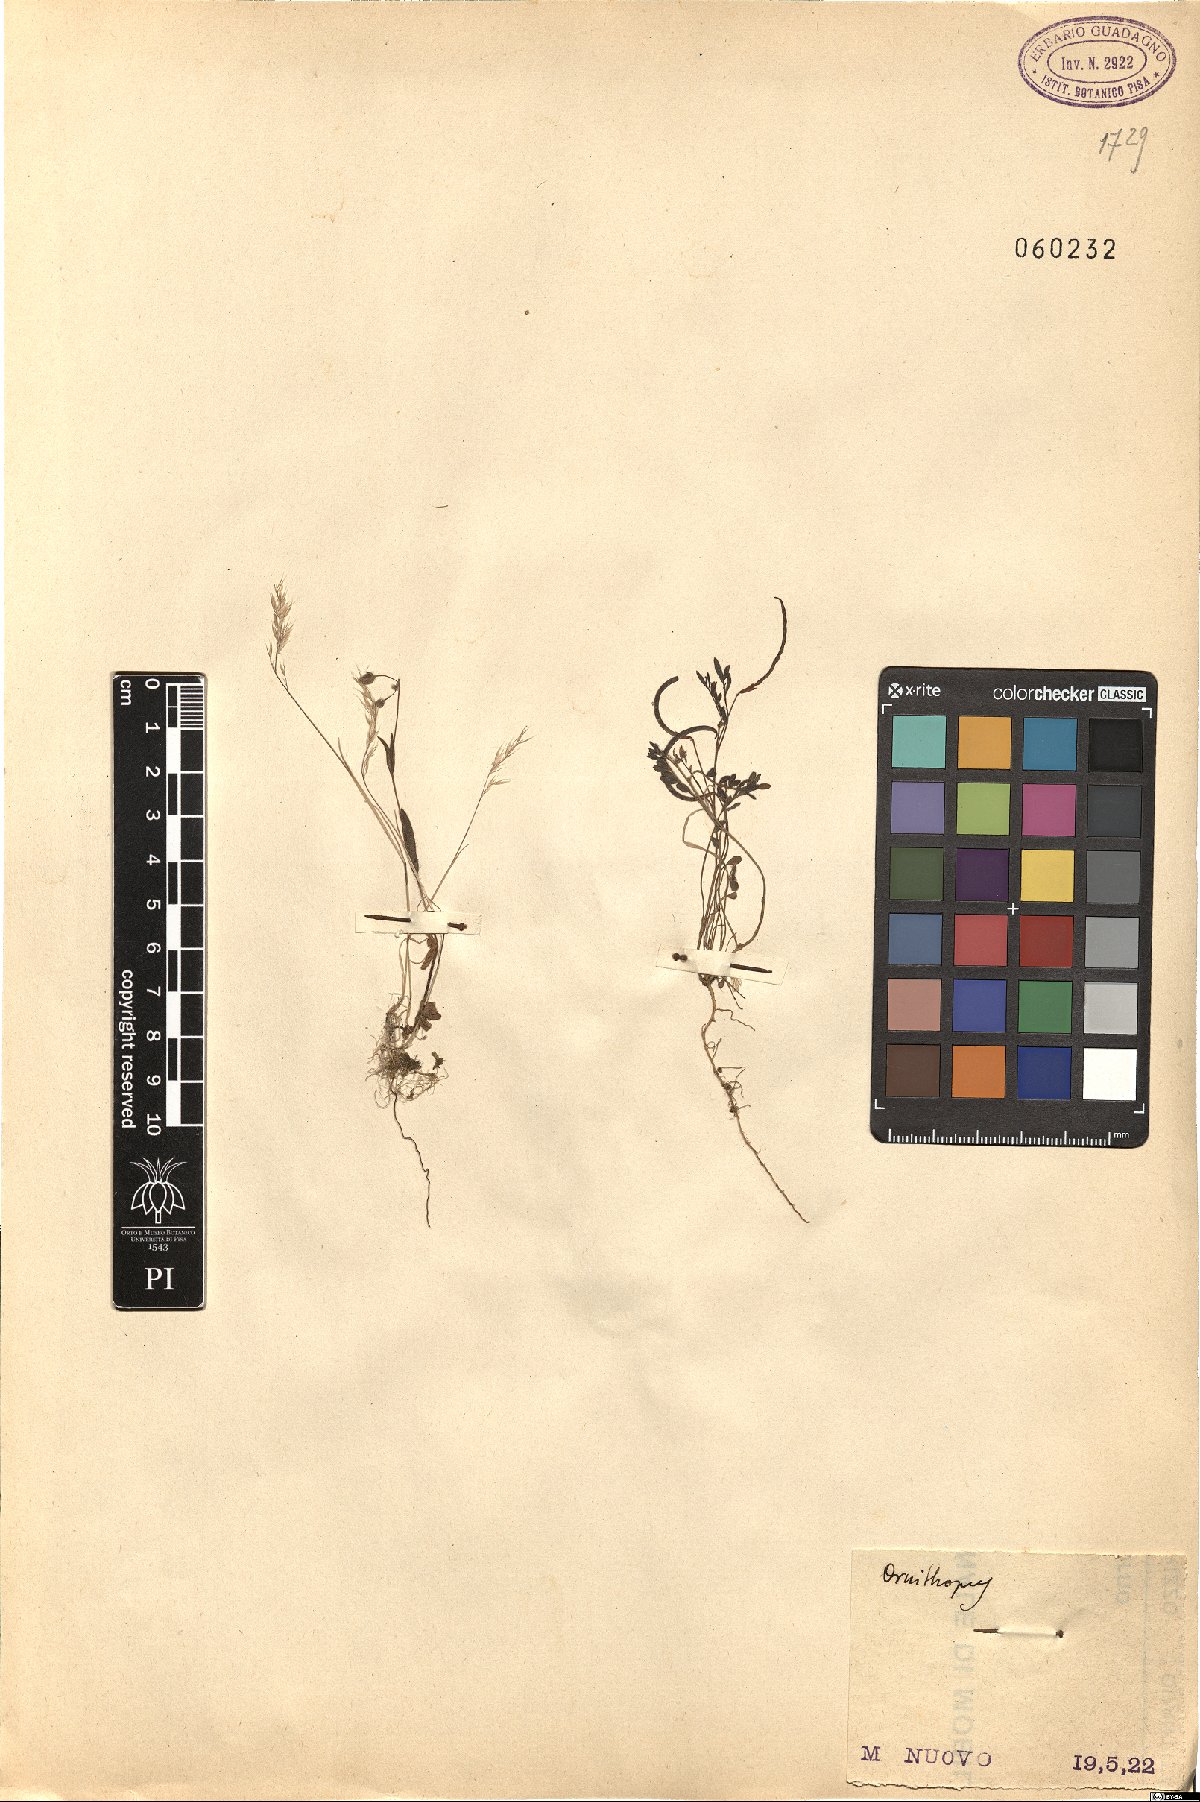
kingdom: Plantae
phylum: Tracheophyta
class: Magnoliopsida
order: Fabales
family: Fabaceae
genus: Ornithopus
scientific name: Ornithopus
